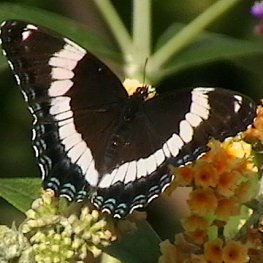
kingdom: Animalia
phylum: Arthropoda
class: Insecta
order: Lepidoptera
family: Nymphalidae
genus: Limenitis
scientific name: Limenitis arthemis
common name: Red-spotted Admiral
